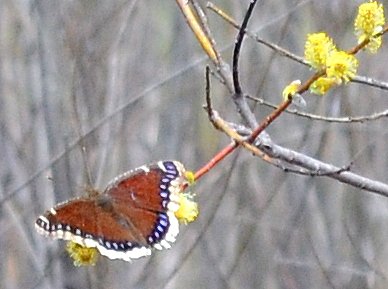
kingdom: Animalia
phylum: Arthropoda
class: Insecta
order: Lepidoptera
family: Nymphalidae
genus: Nymphalis
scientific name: Nymphalis antiopa
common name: Mourning Cloak
